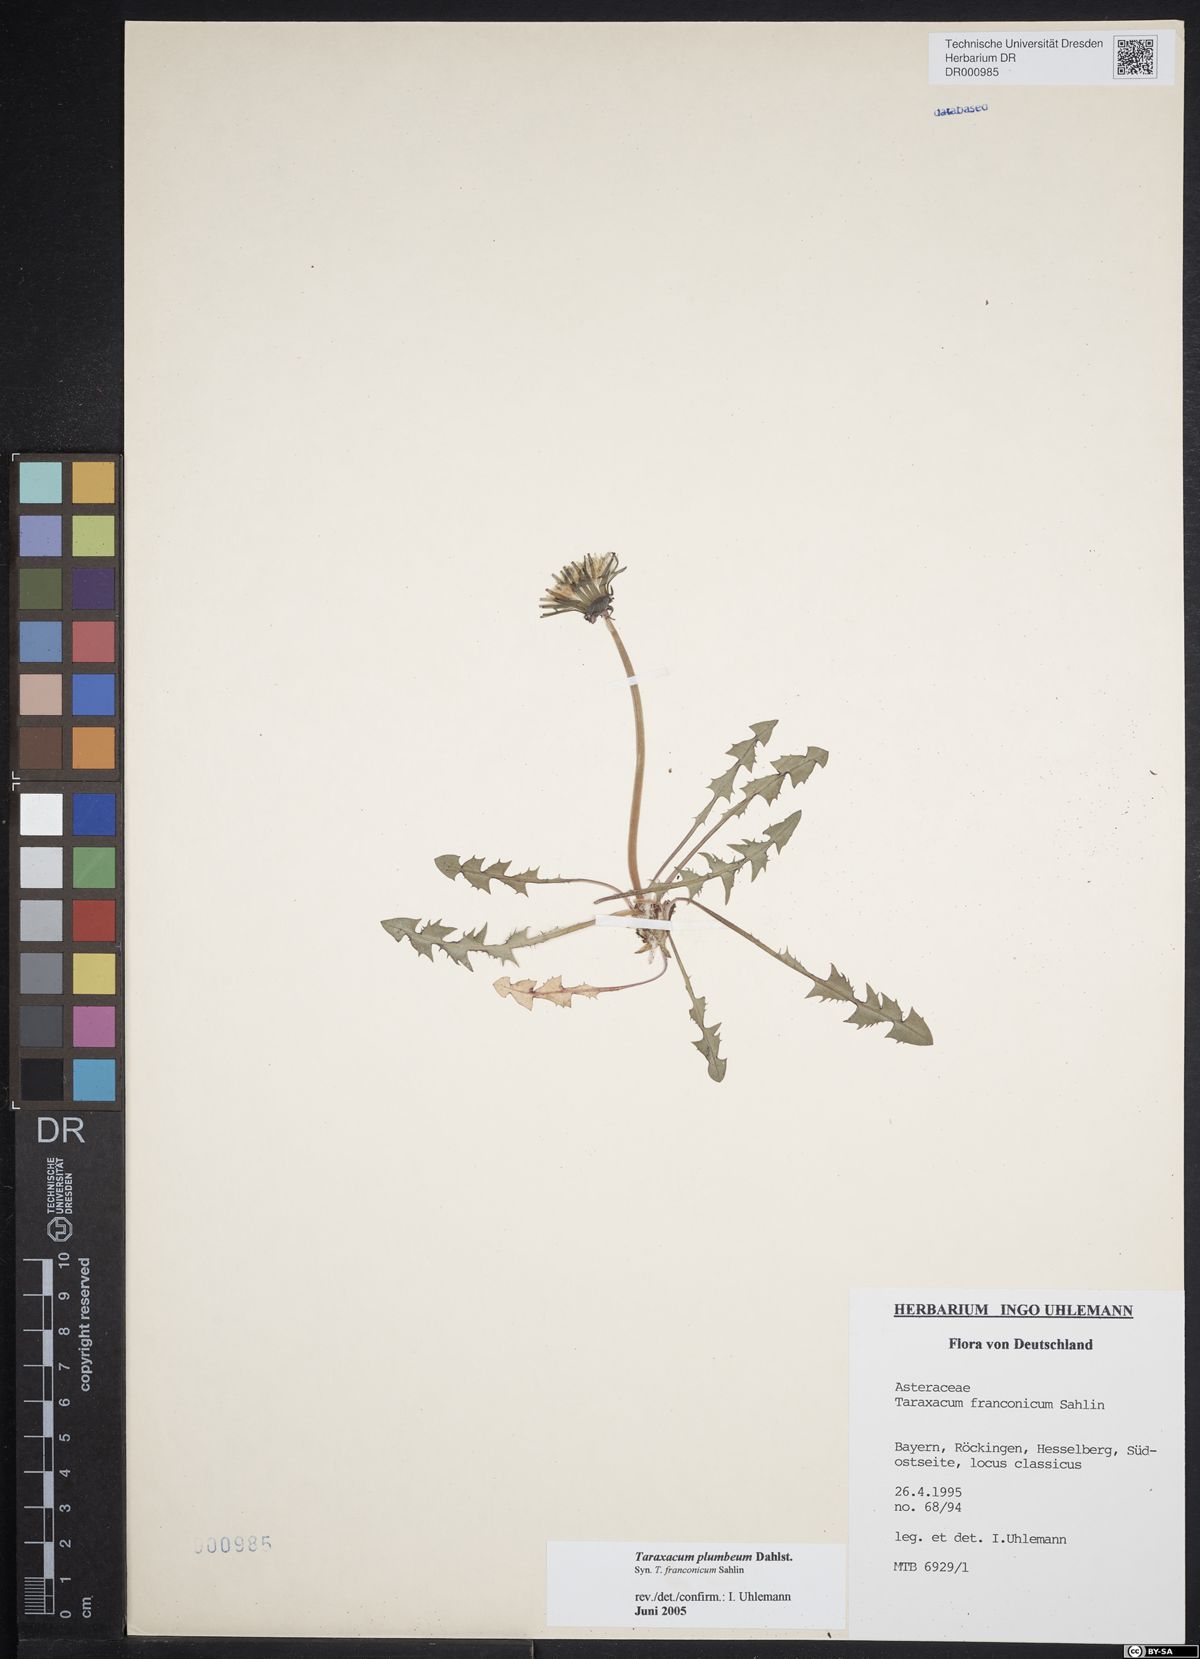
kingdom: Plantae
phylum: Tracheophyta
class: Magnoliopsida
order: Asterales
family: Asteraceae
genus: Taraxacum
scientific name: Taraxacum plumbeum
